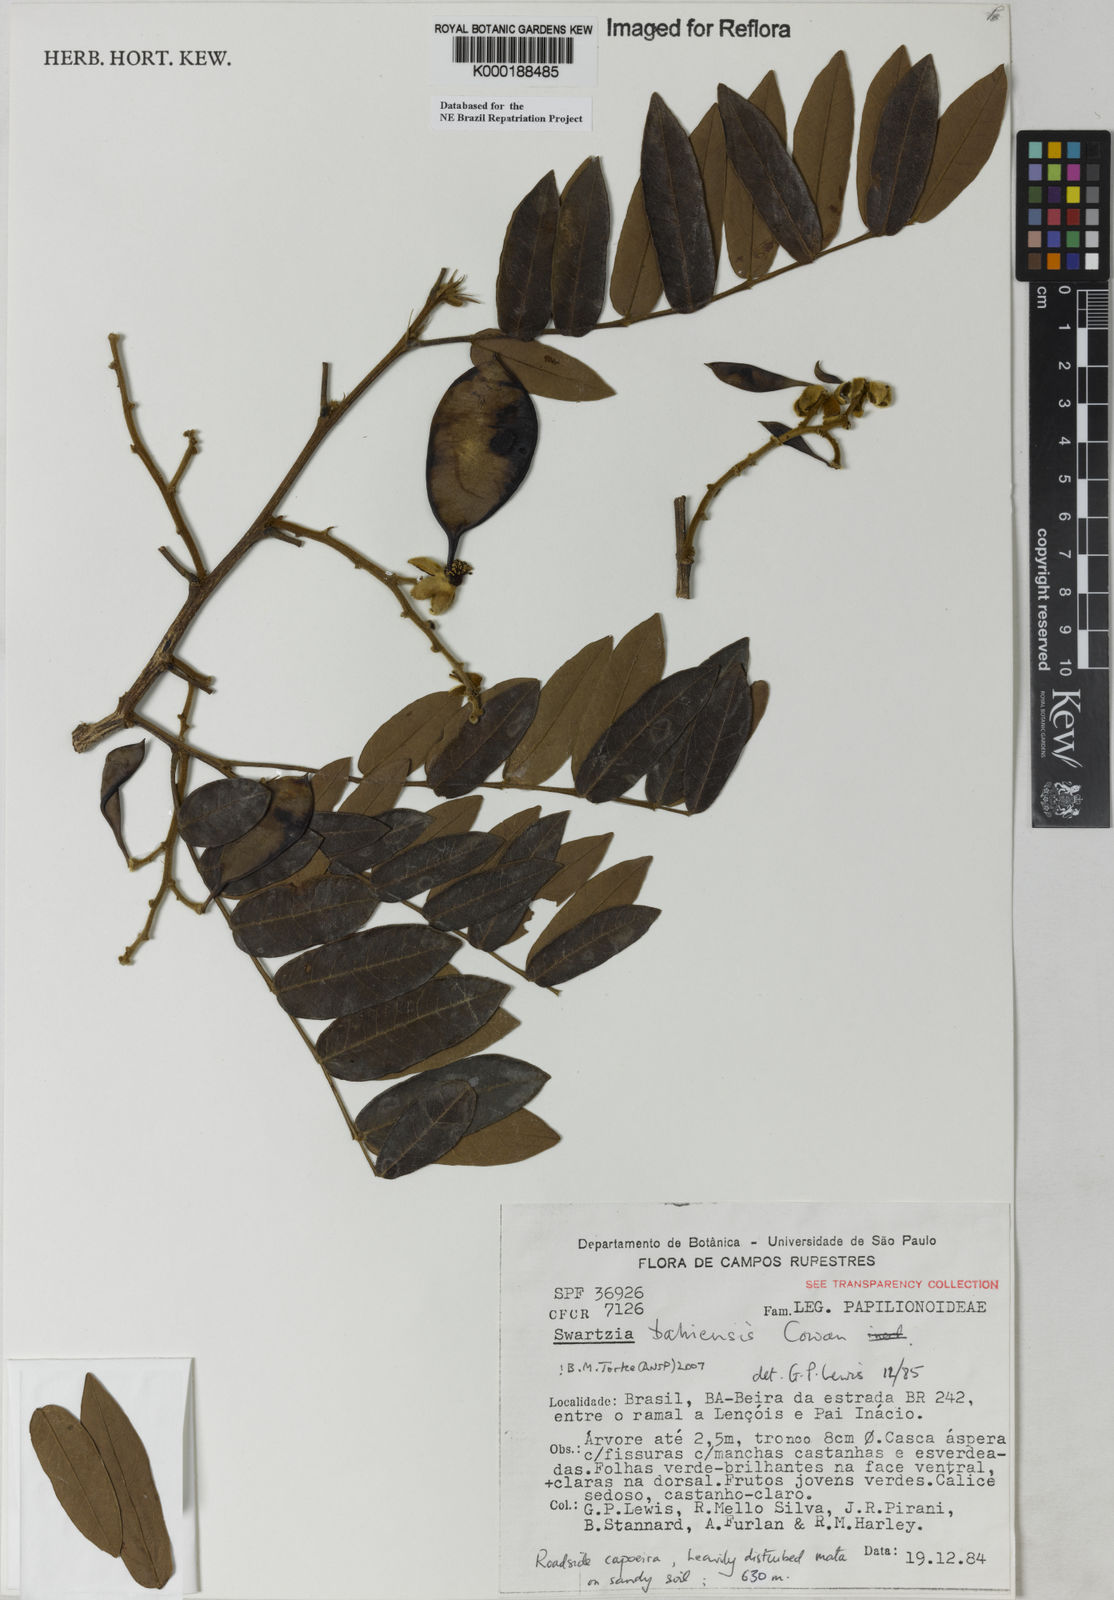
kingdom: Plantae
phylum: Tracheophyta
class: Magnoliopsida
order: Fabales
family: Fabaceae
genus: Swartzia
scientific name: Swartzia bahiensis
